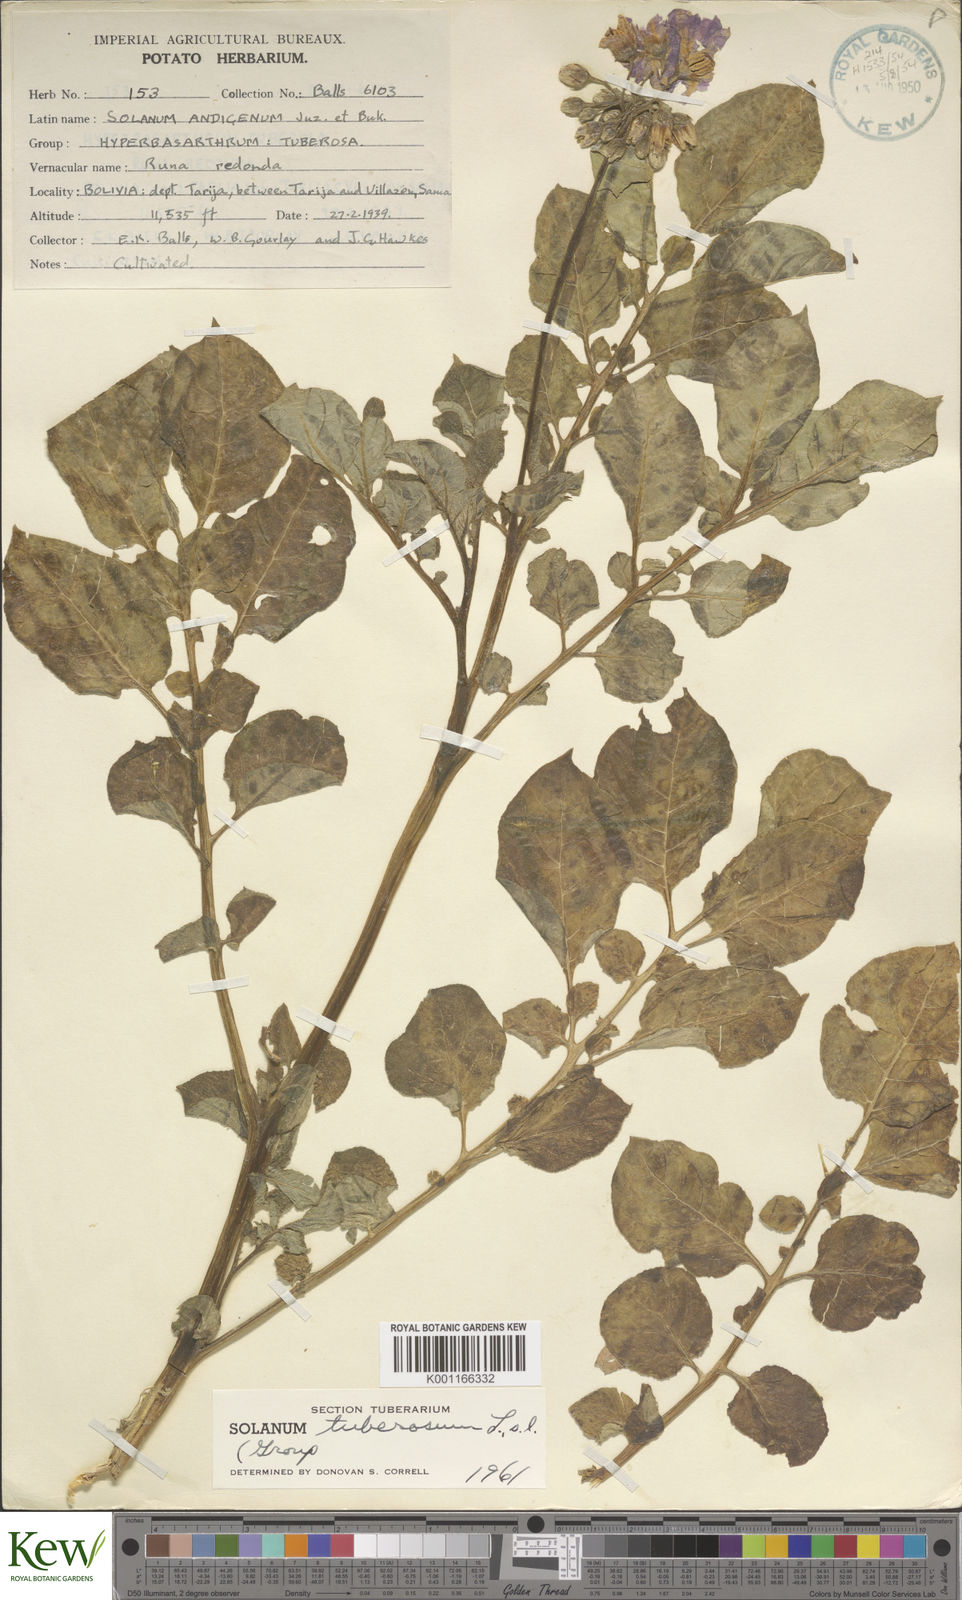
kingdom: Plantae
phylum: Tracheophyta
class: Magnoliopsida
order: Solanales
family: Solanaceae
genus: Solanum
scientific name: Solanum tuberosum
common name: Potato
